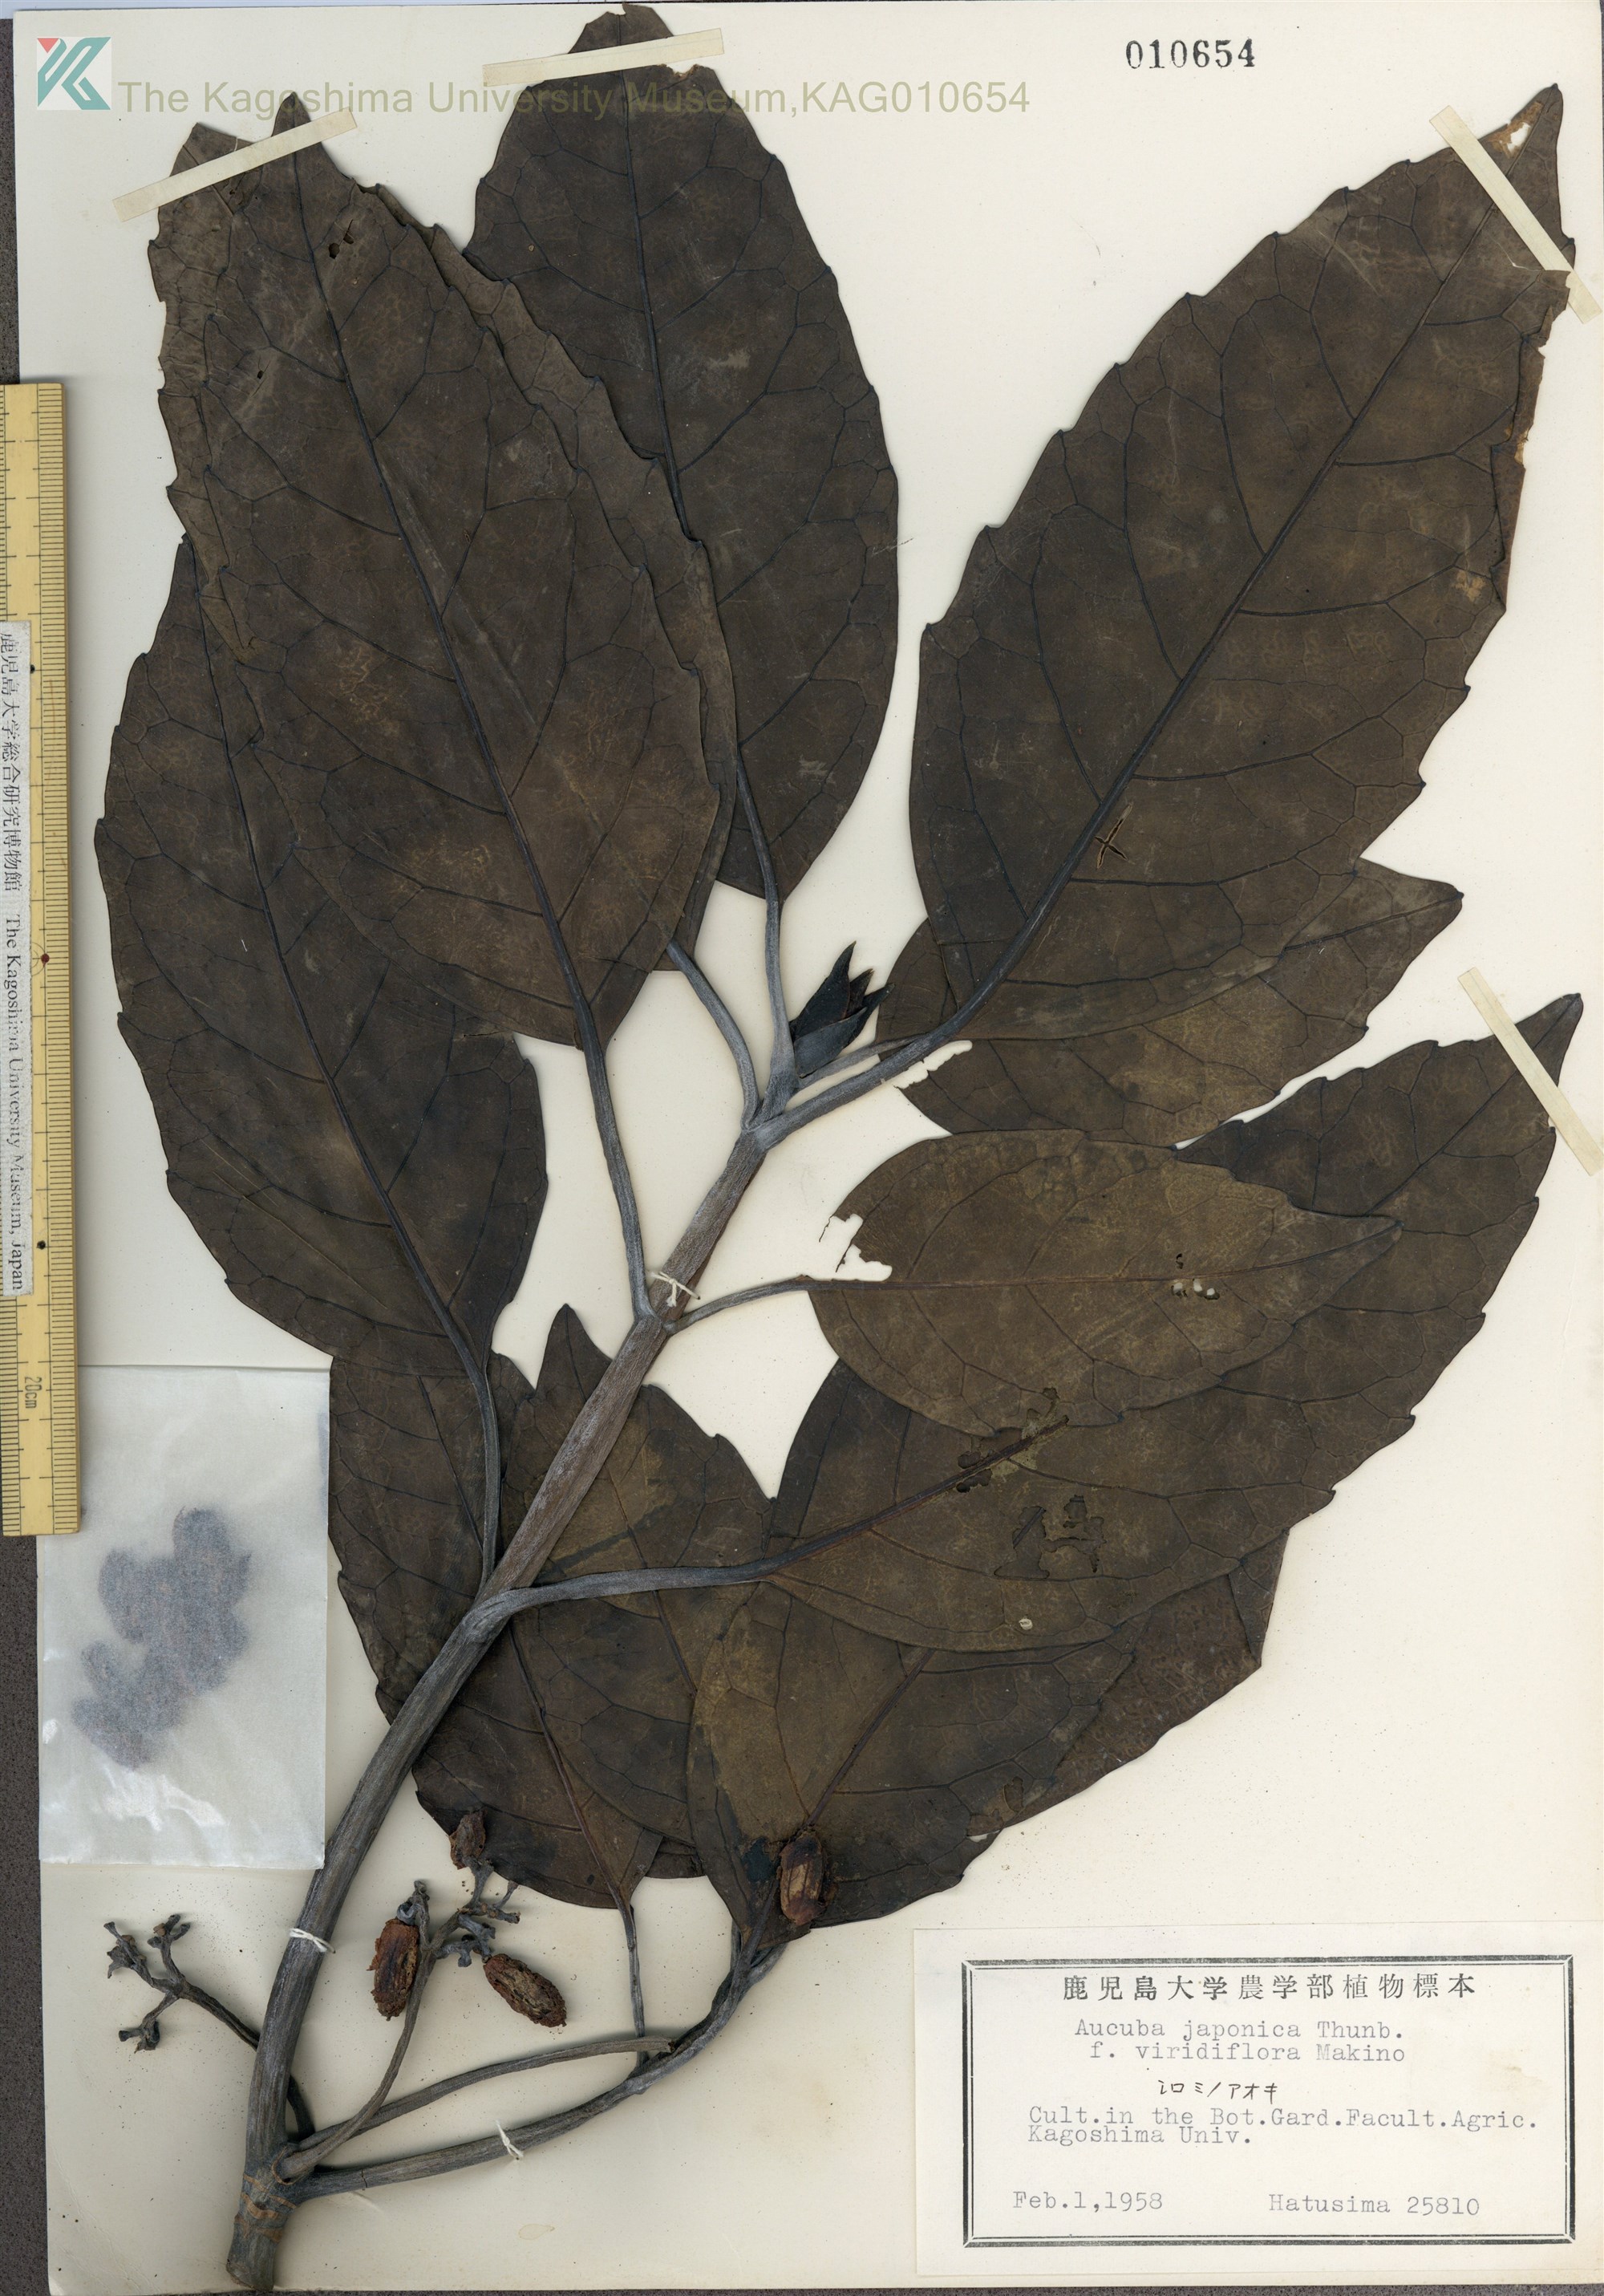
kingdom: Plantae
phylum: Tracheophyta
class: Magnoliopsida
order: Garryales
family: Garryaceae
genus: Aucuba
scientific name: Aucuba japonica
